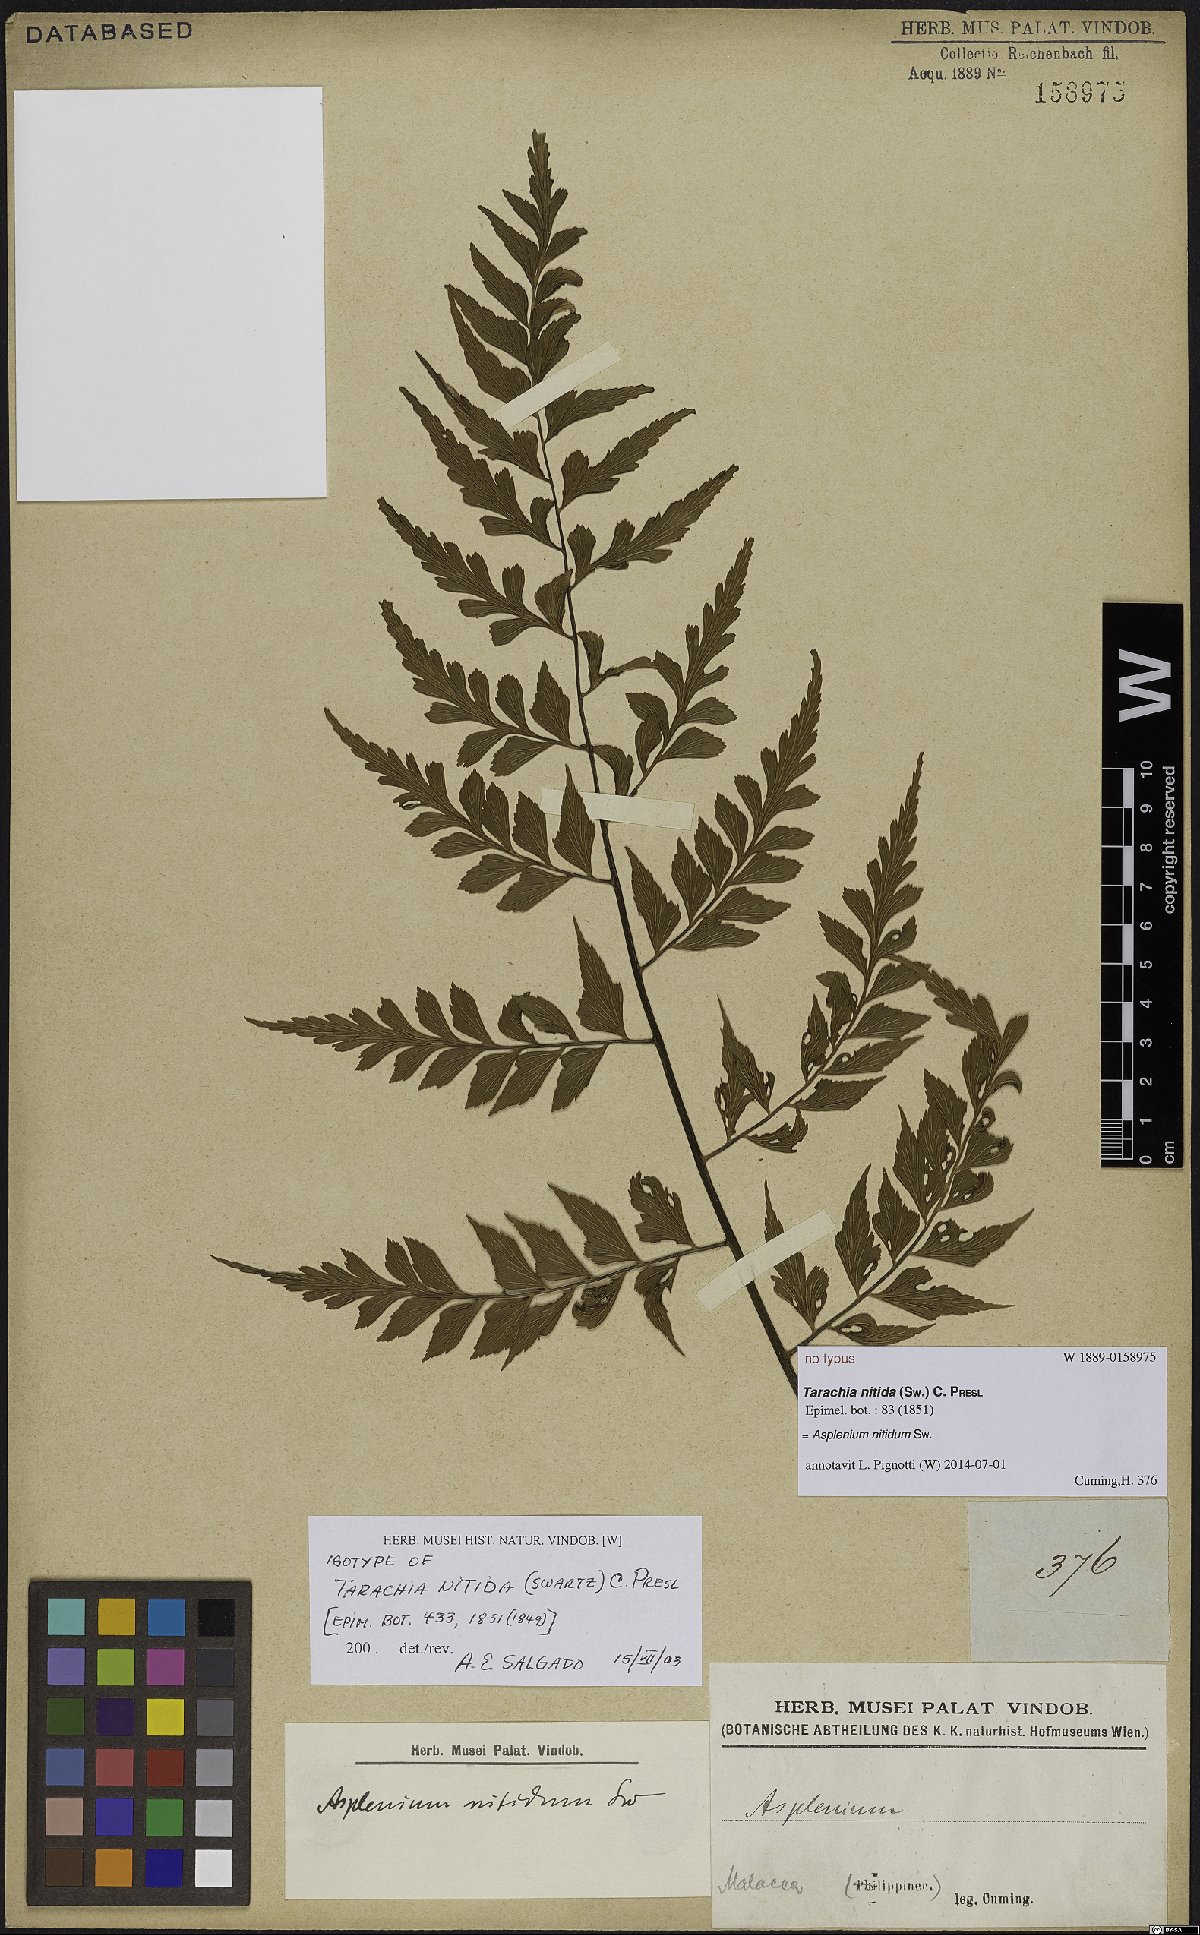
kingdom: Plantae
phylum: Tracheophyta
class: Polypodiopsida
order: Polypodiales
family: Aspleniaceae
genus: Asplenium
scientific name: Asplenium nitidum
